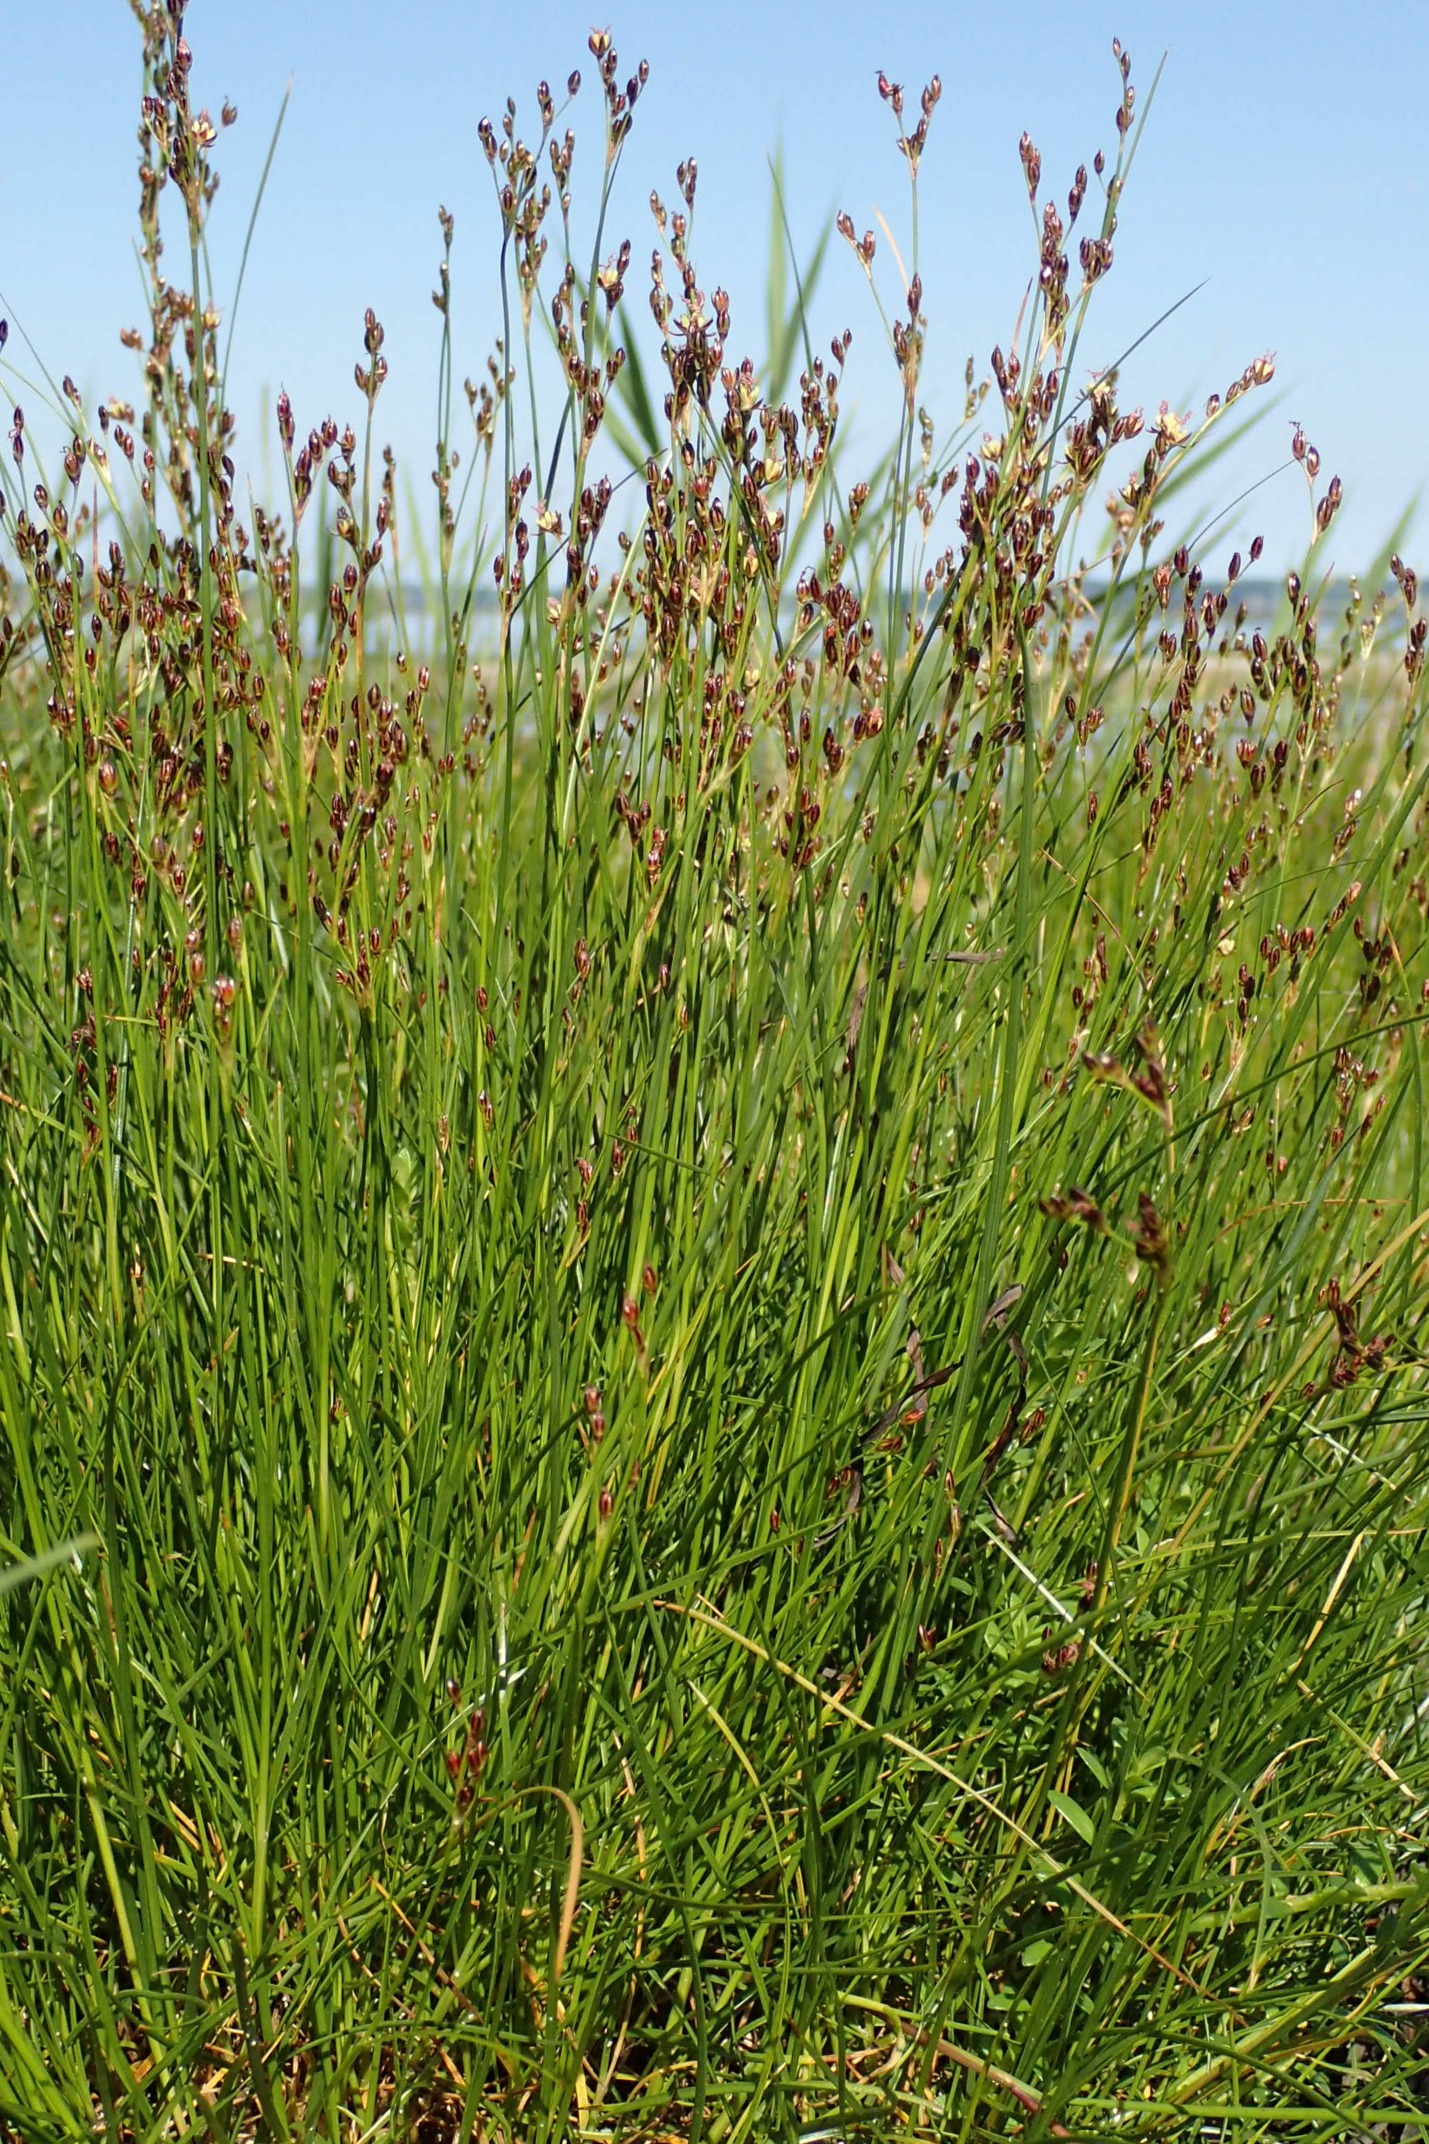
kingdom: Plantae
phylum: Tracheophyta
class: Liliopsida
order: Poales
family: Juncaceae
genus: Juncus
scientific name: Juncus gerardi
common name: Harril
